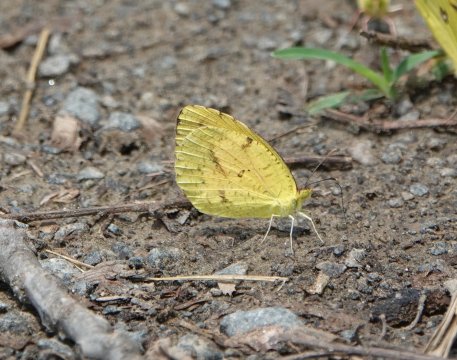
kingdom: Animalia
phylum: Arthropoda
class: Insecta
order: Lepidoptera
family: Pieridae
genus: Abaeis
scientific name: Abaeis nicippe
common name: Sleepy Orange
